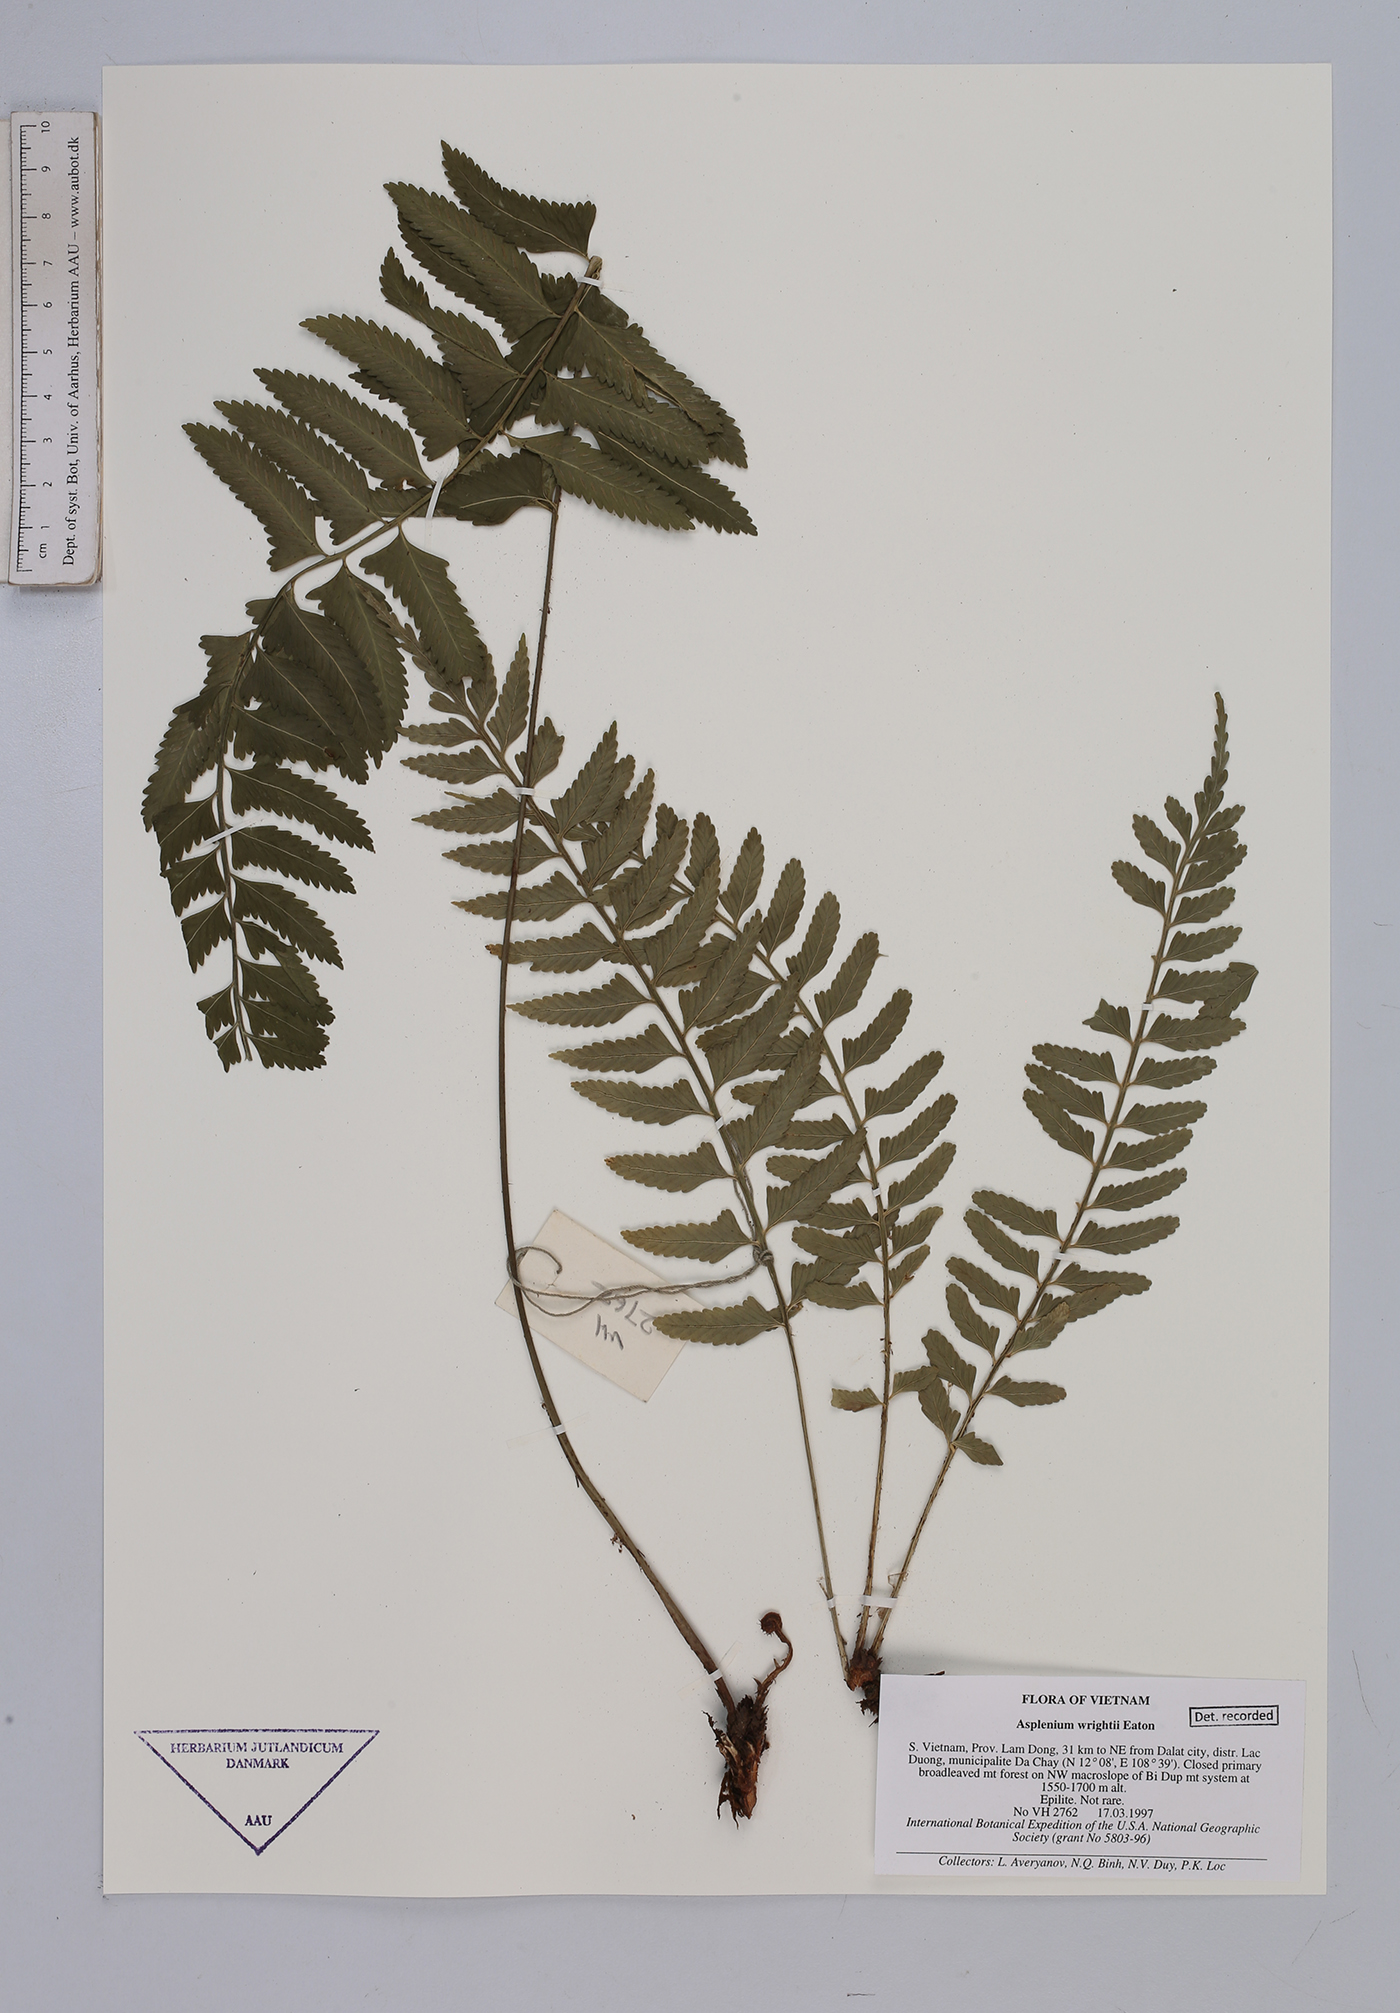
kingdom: Plantae
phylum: Tracheophyta
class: Polypodiopsida
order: Polypodiales
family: Aspleniaceae
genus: Asplenium
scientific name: Asplenium wrightii
